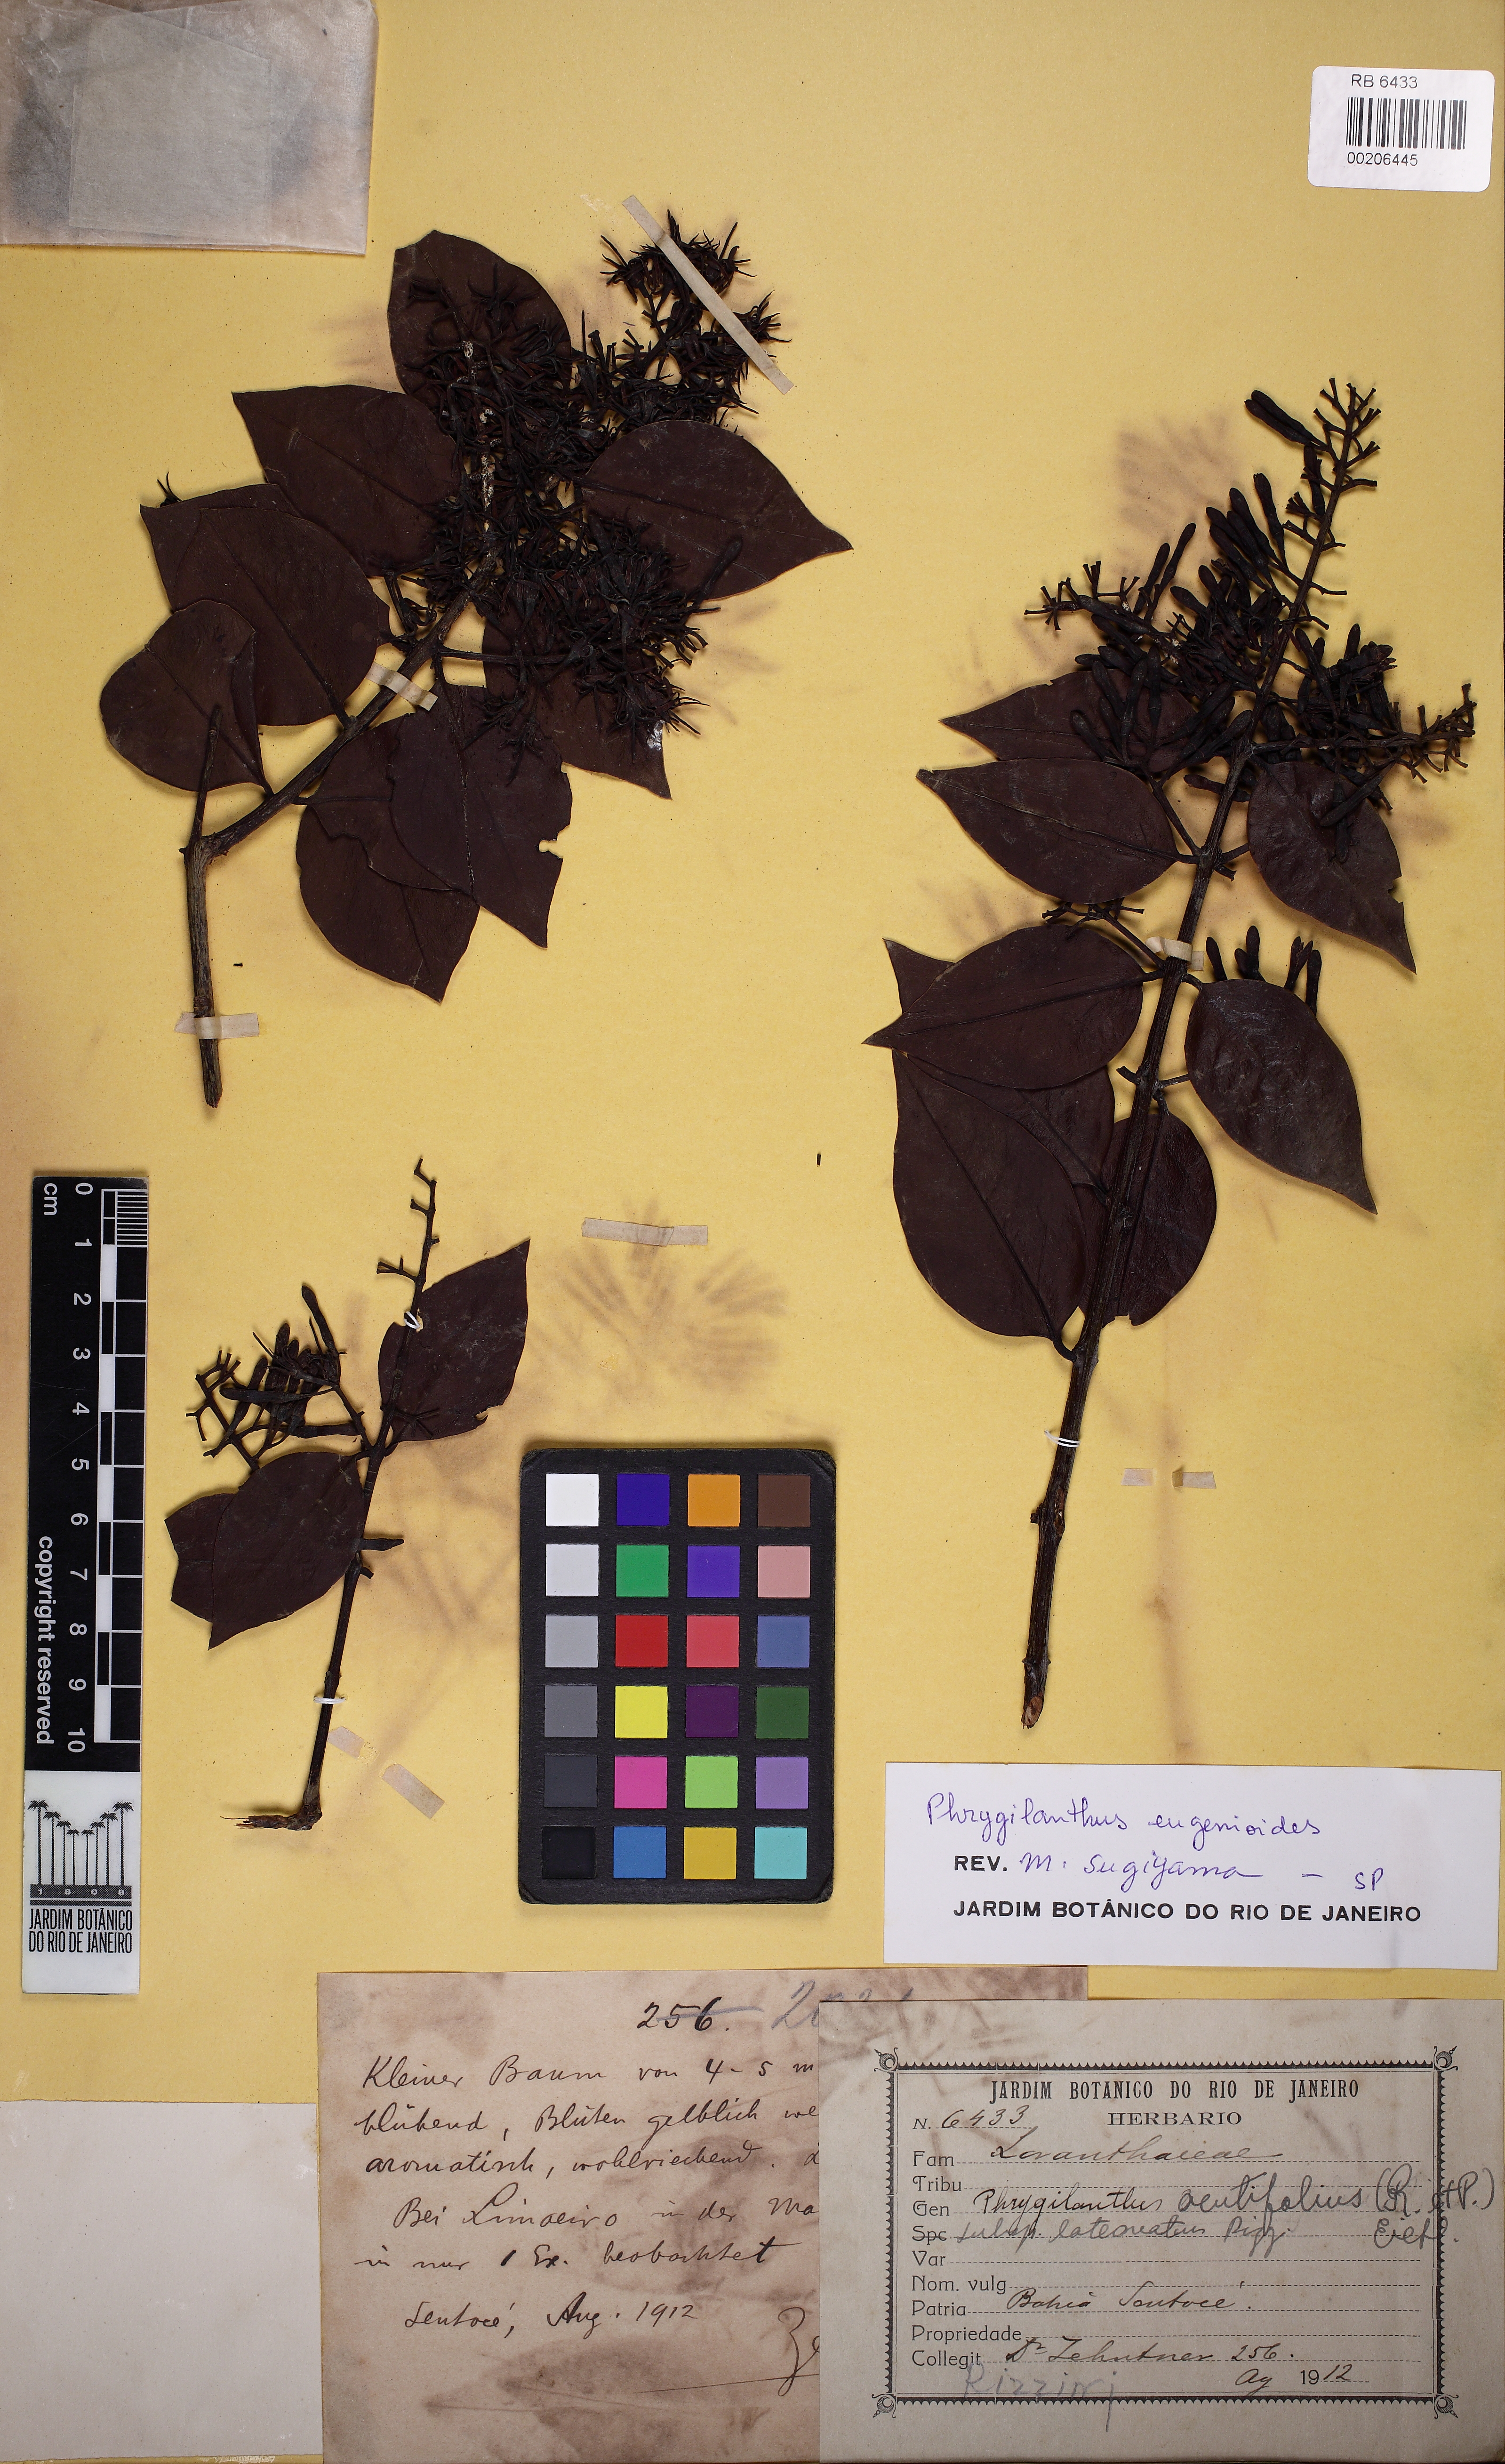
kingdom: Plantae
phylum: Tracheophyta
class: Magnoliopsida
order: Santalales
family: Loranthaceae
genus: Tripodanthus
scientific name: Tripodanthus acutifolius
